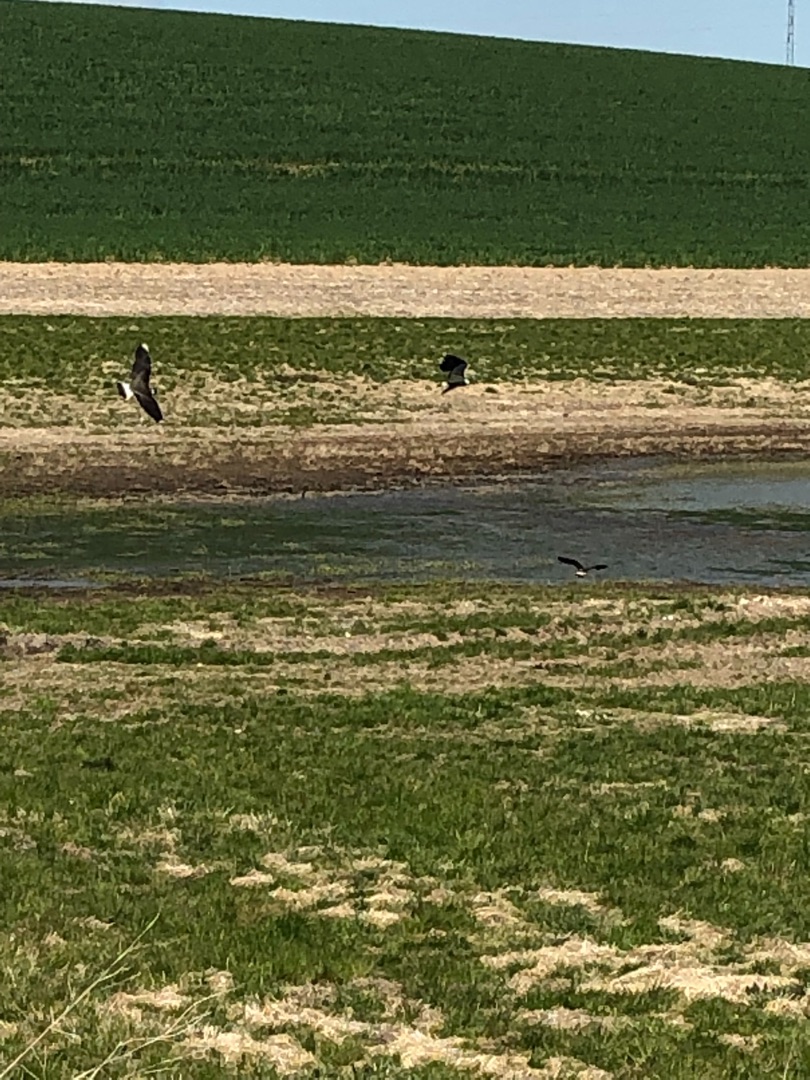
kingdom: Animalia
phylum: Chordata
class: Aves
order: Charadriiformes
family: Charadriidae
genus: Vanellus
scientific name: Vanellus vanellus
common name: Vibe
